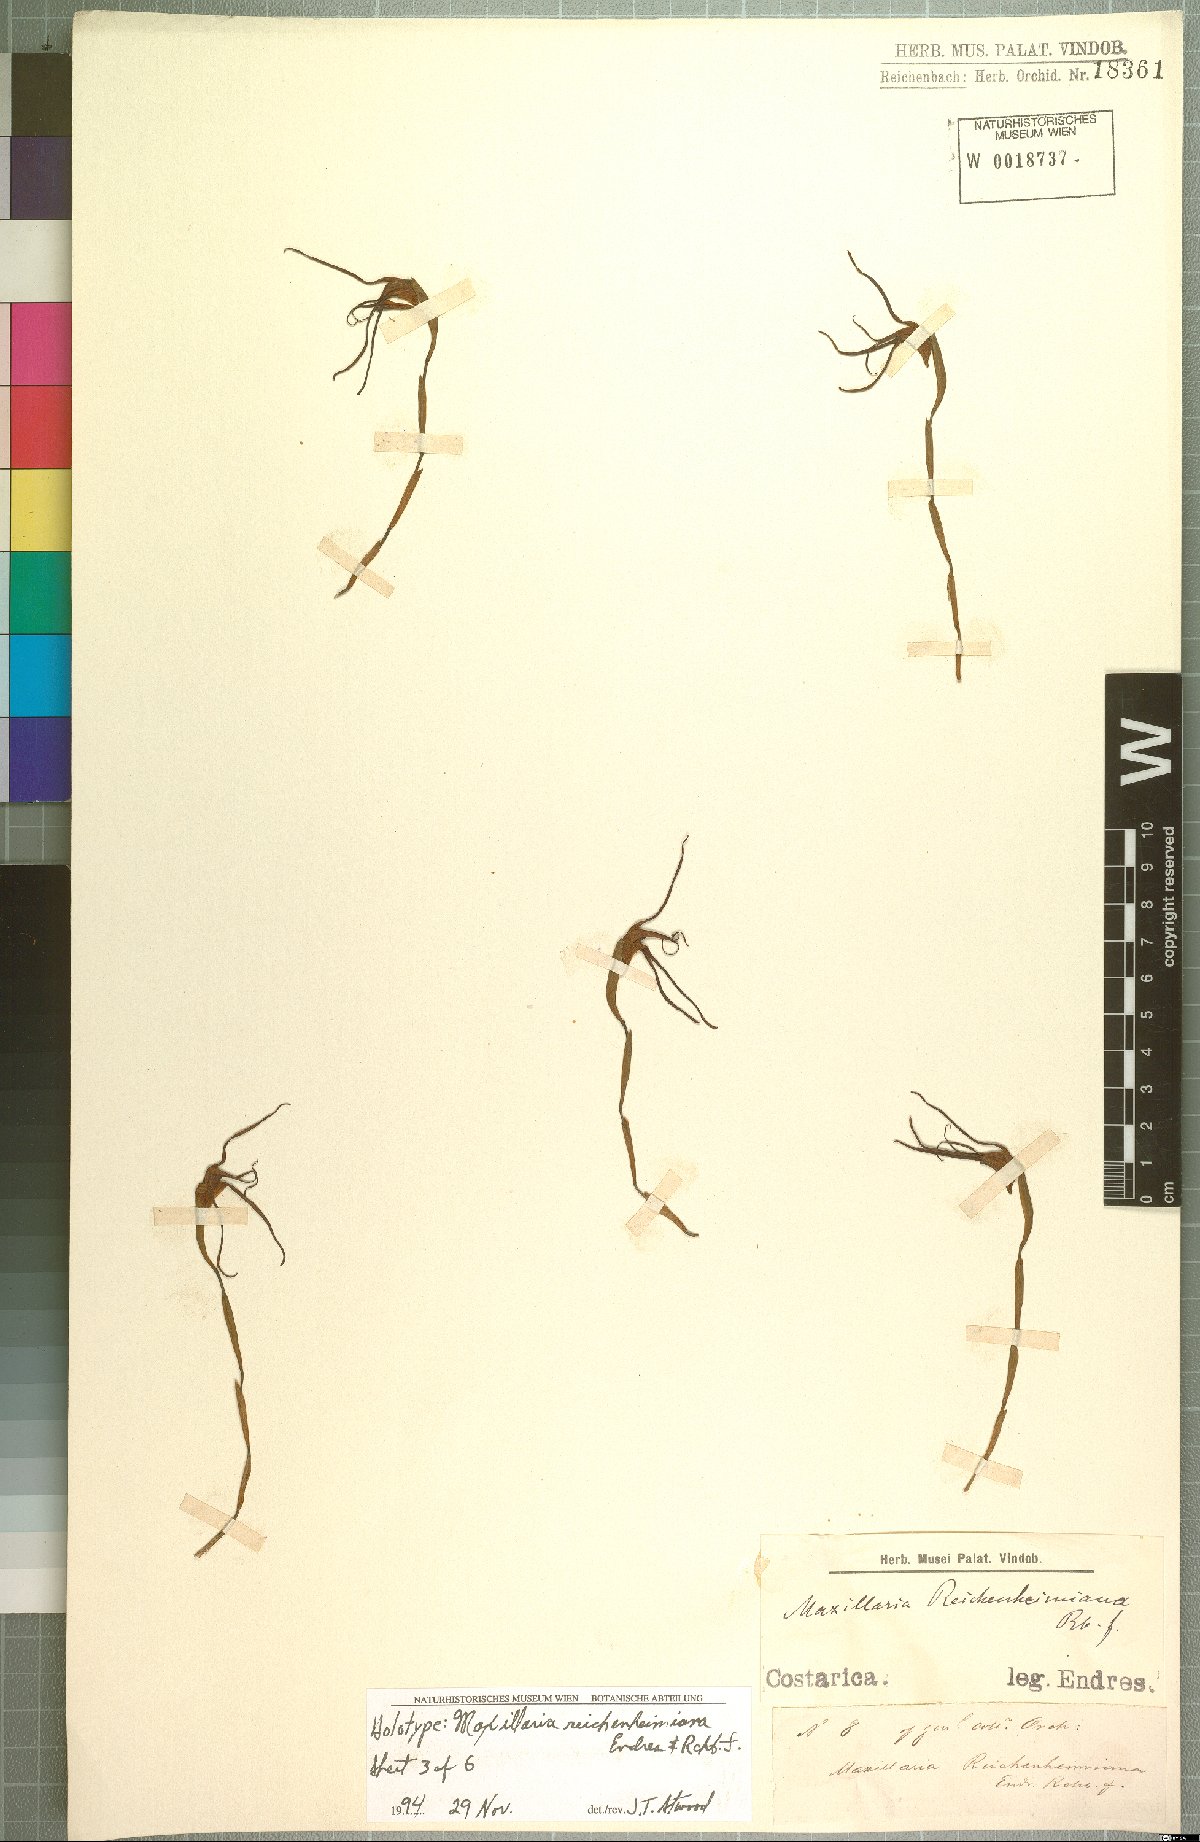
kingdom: Plantae
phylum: Tracheophyta
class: Liliopsida
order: Asparagales
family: Orchidaceae
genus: Maxillaria
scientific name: Maxillaria reichenheimiana
